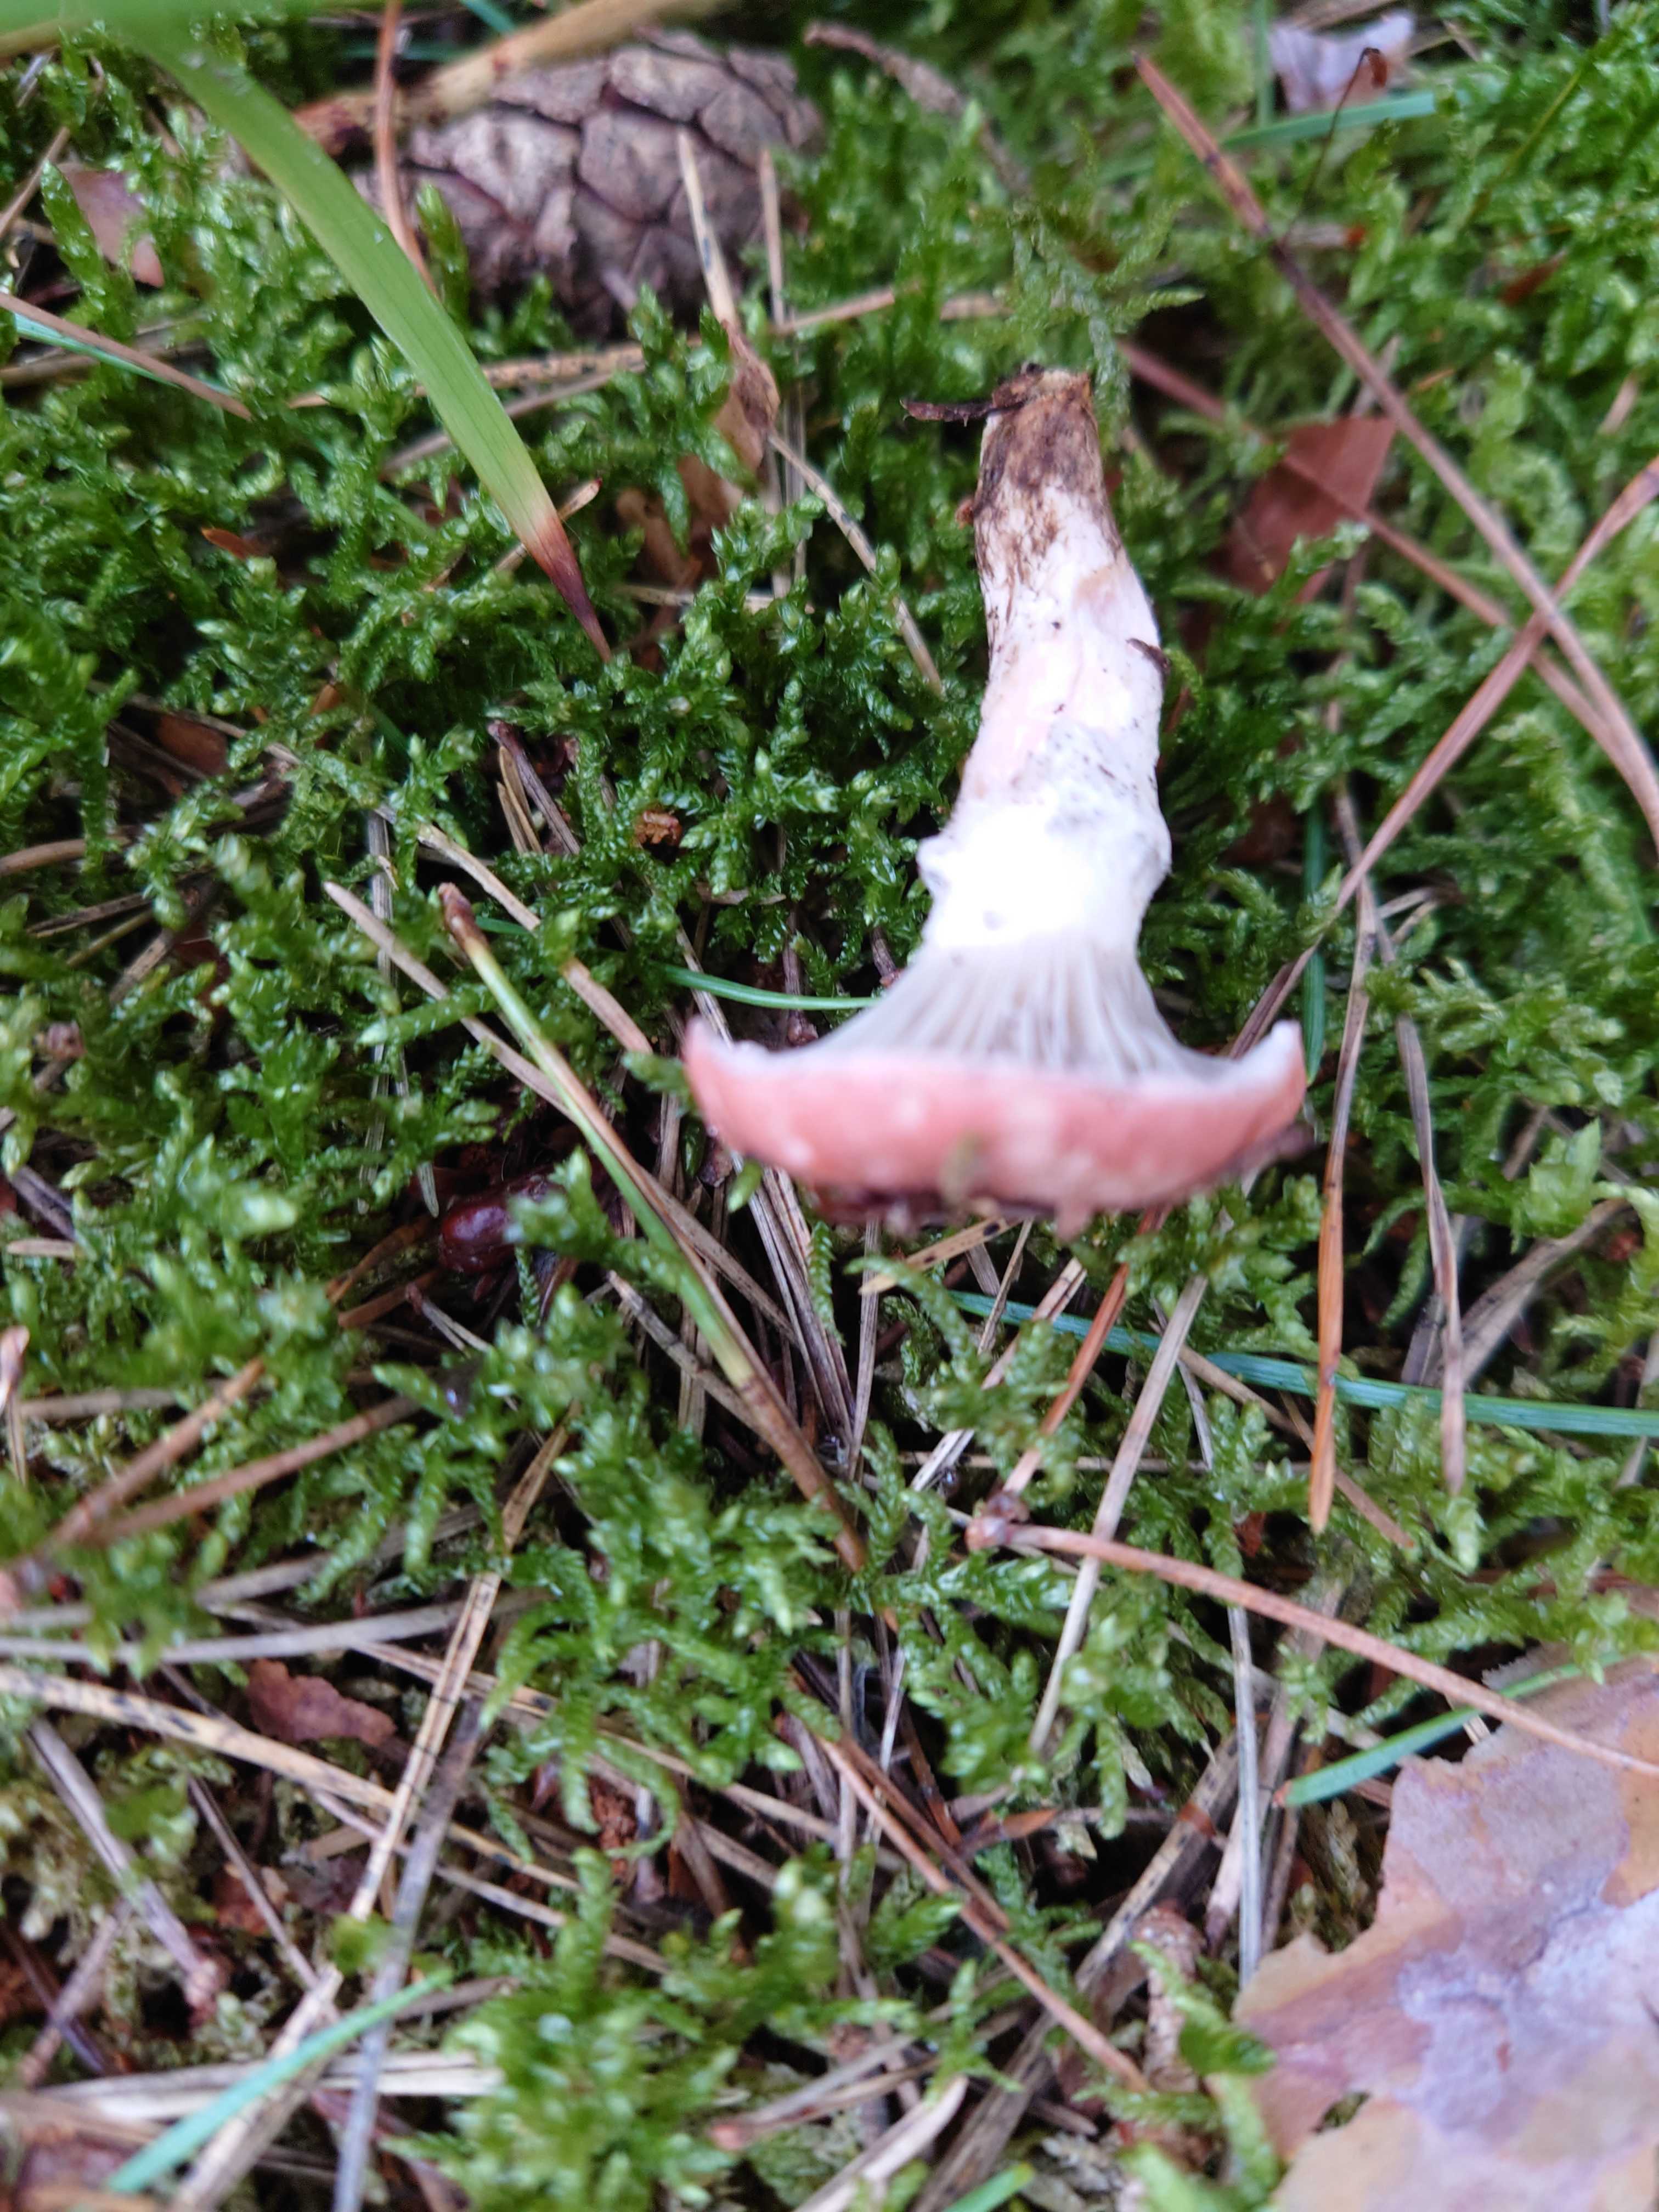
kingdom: Fungi
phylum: Basidiomycota
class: Agaricomycetes
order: Boletales
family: Gomphidiaceae
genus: Gomphidius
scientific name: Gomphidius roseus
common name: rosenrød slimslør
